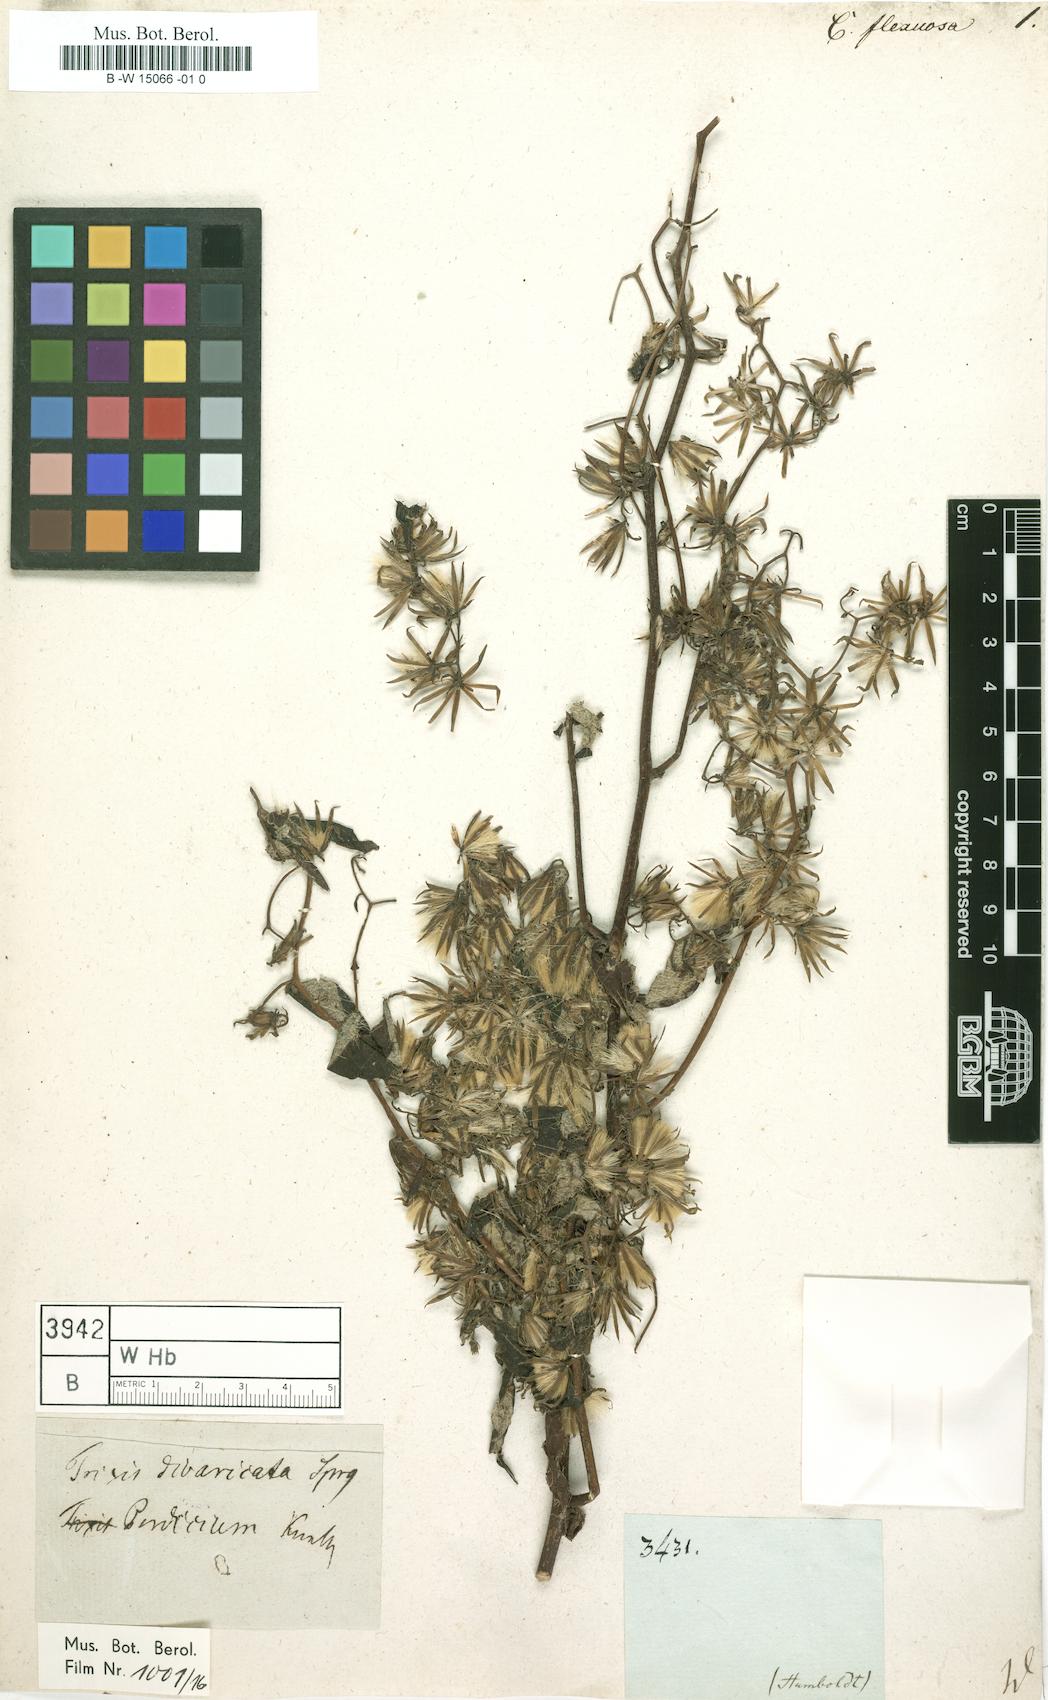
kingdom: Plantae
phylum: Tracheophyta
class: Magnoliopsida
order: Asterales
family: Asteraceae
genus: Holocheilus
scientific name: Holocheilus brasiliensis
